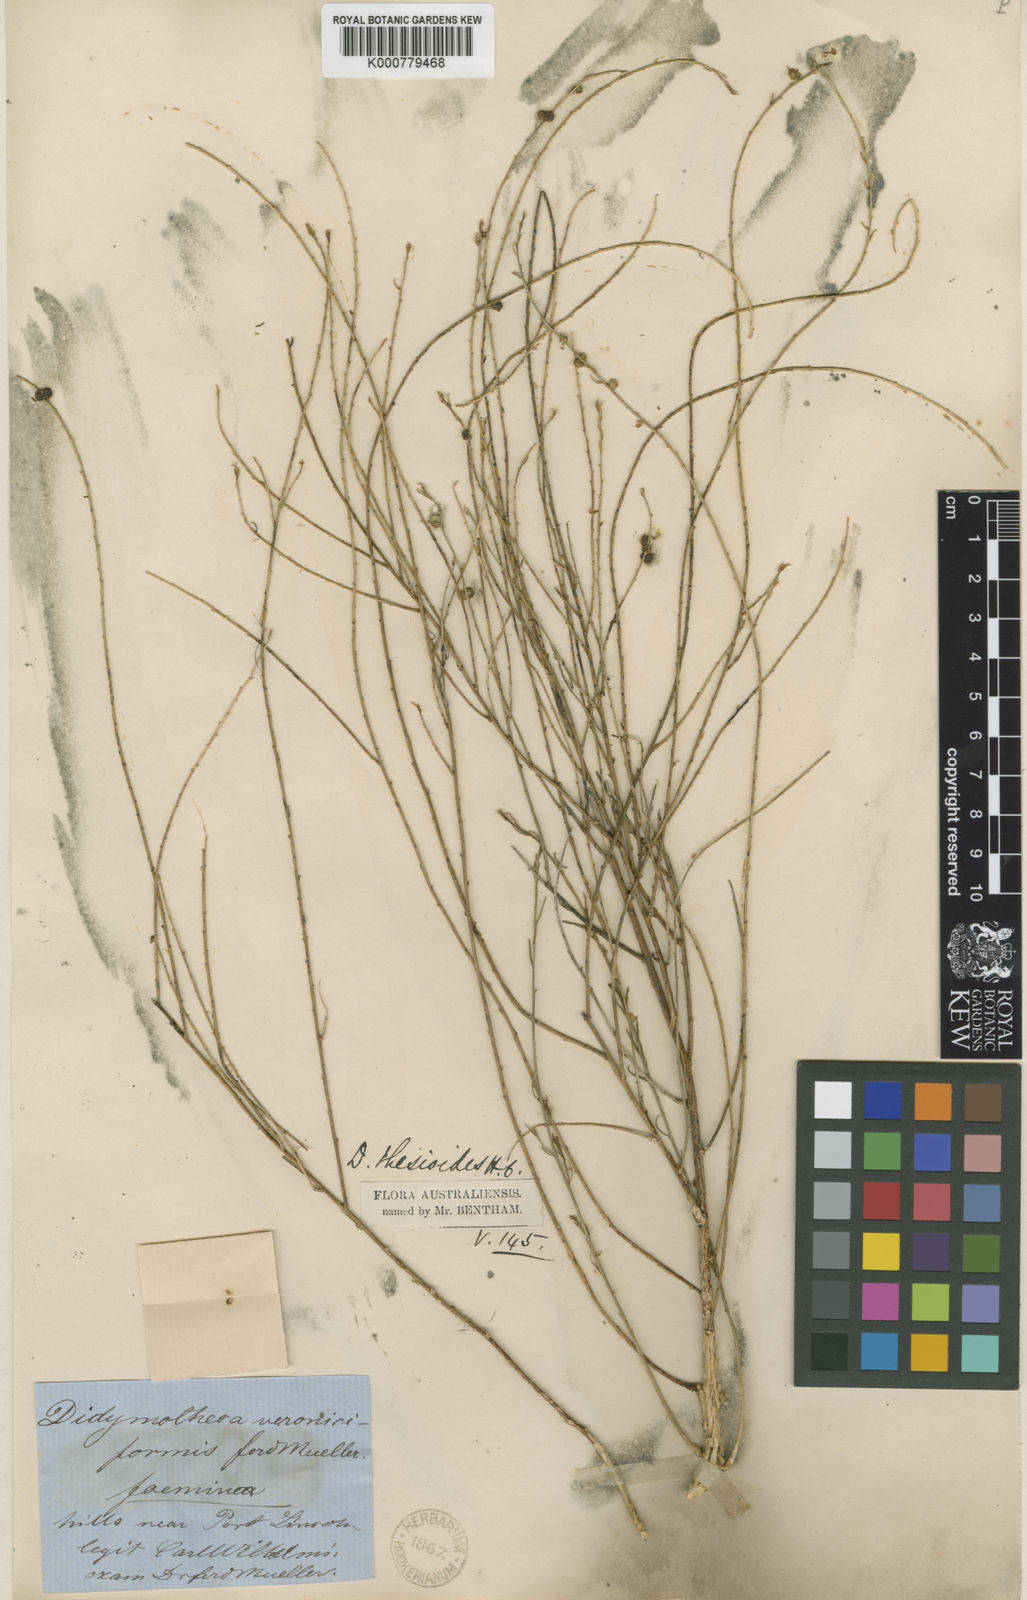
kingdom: Plantae
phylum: Tracheophyta
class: Magnoliopsida
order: Brassicales
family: Gyrostemonaceae
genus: Gyrostemon
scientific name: Gyrostemon thesioides
